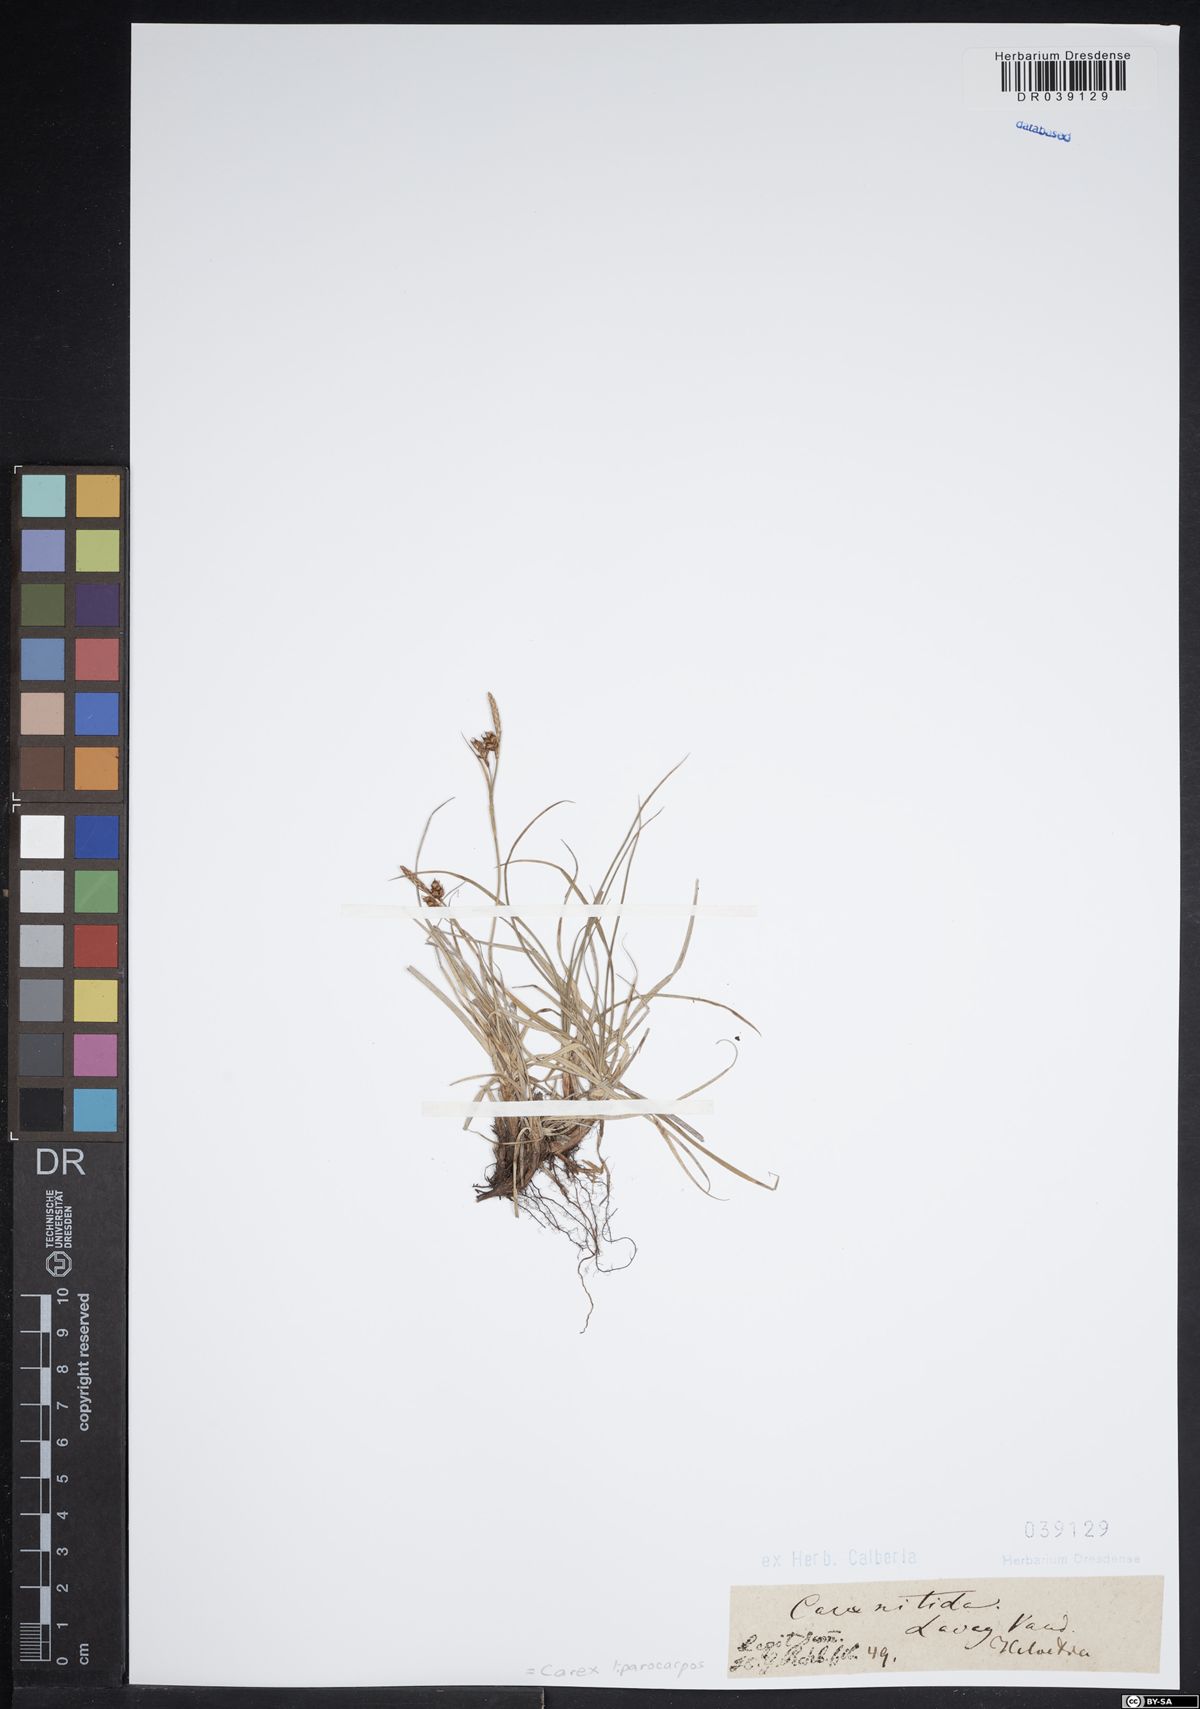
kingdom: Plantae
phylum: Tracheophyta
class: Liliopsida
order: Poales
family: Cyperaceae
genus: Carex
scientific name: Carex liparocarpos
